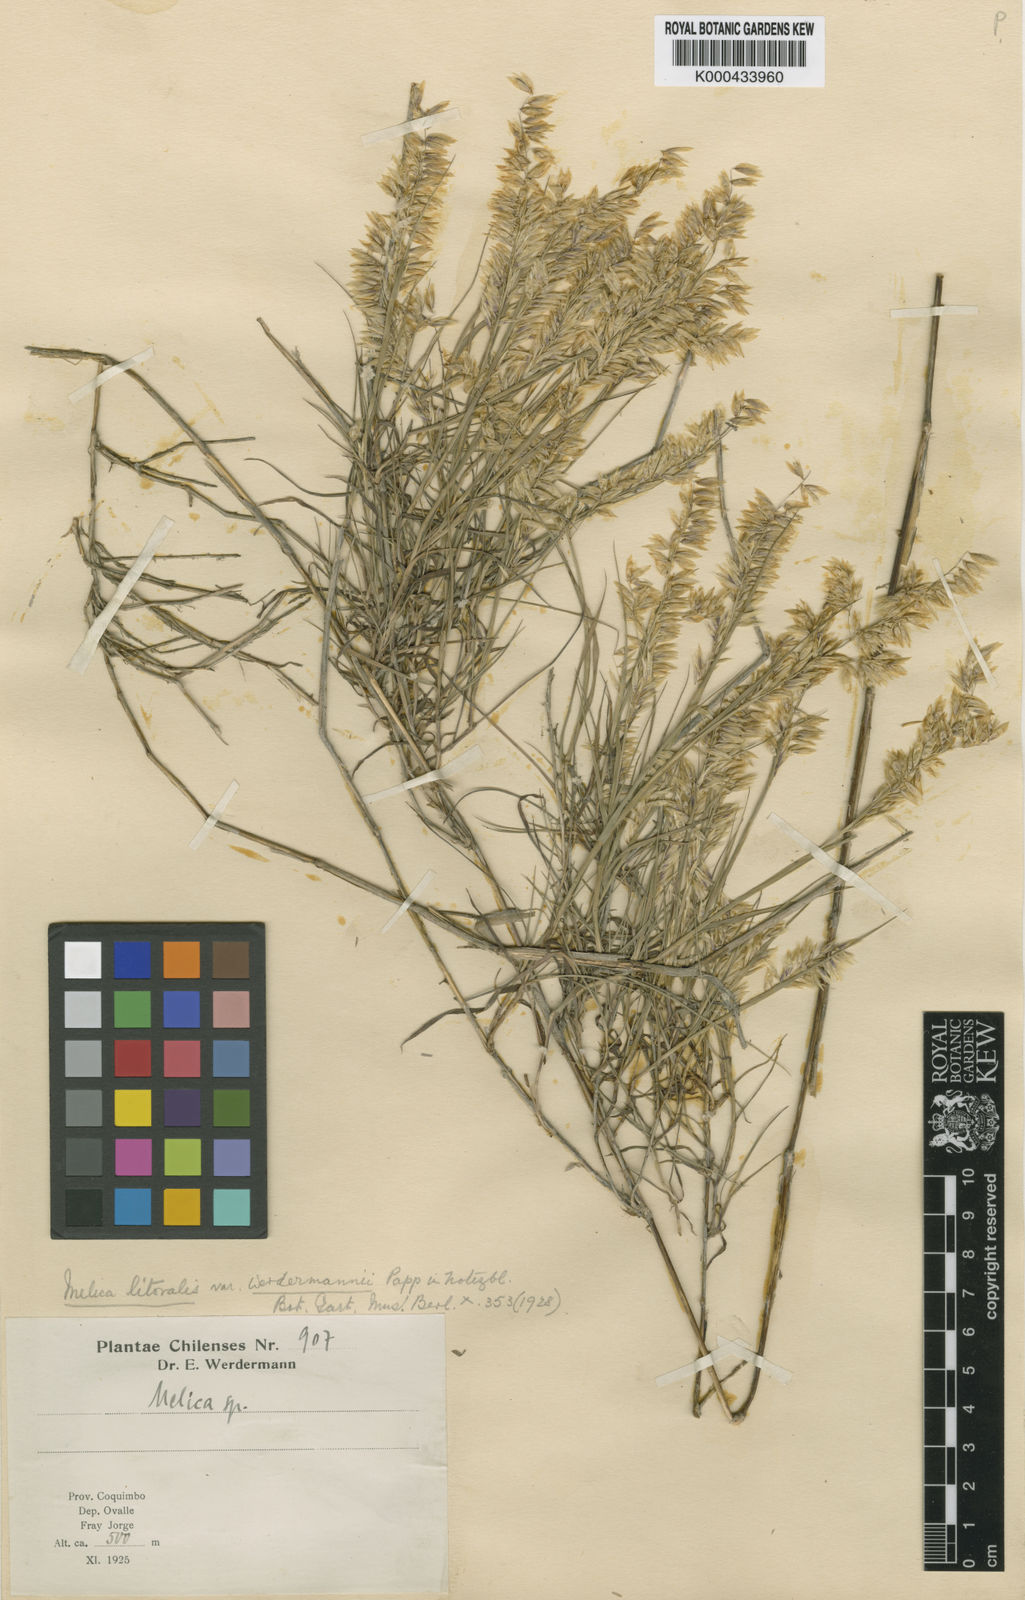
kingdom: Plantae
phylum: Tracheophyta
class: Liliopsida
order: Poales
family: Poaceae
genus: Melica
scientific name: Melica paulsenii
